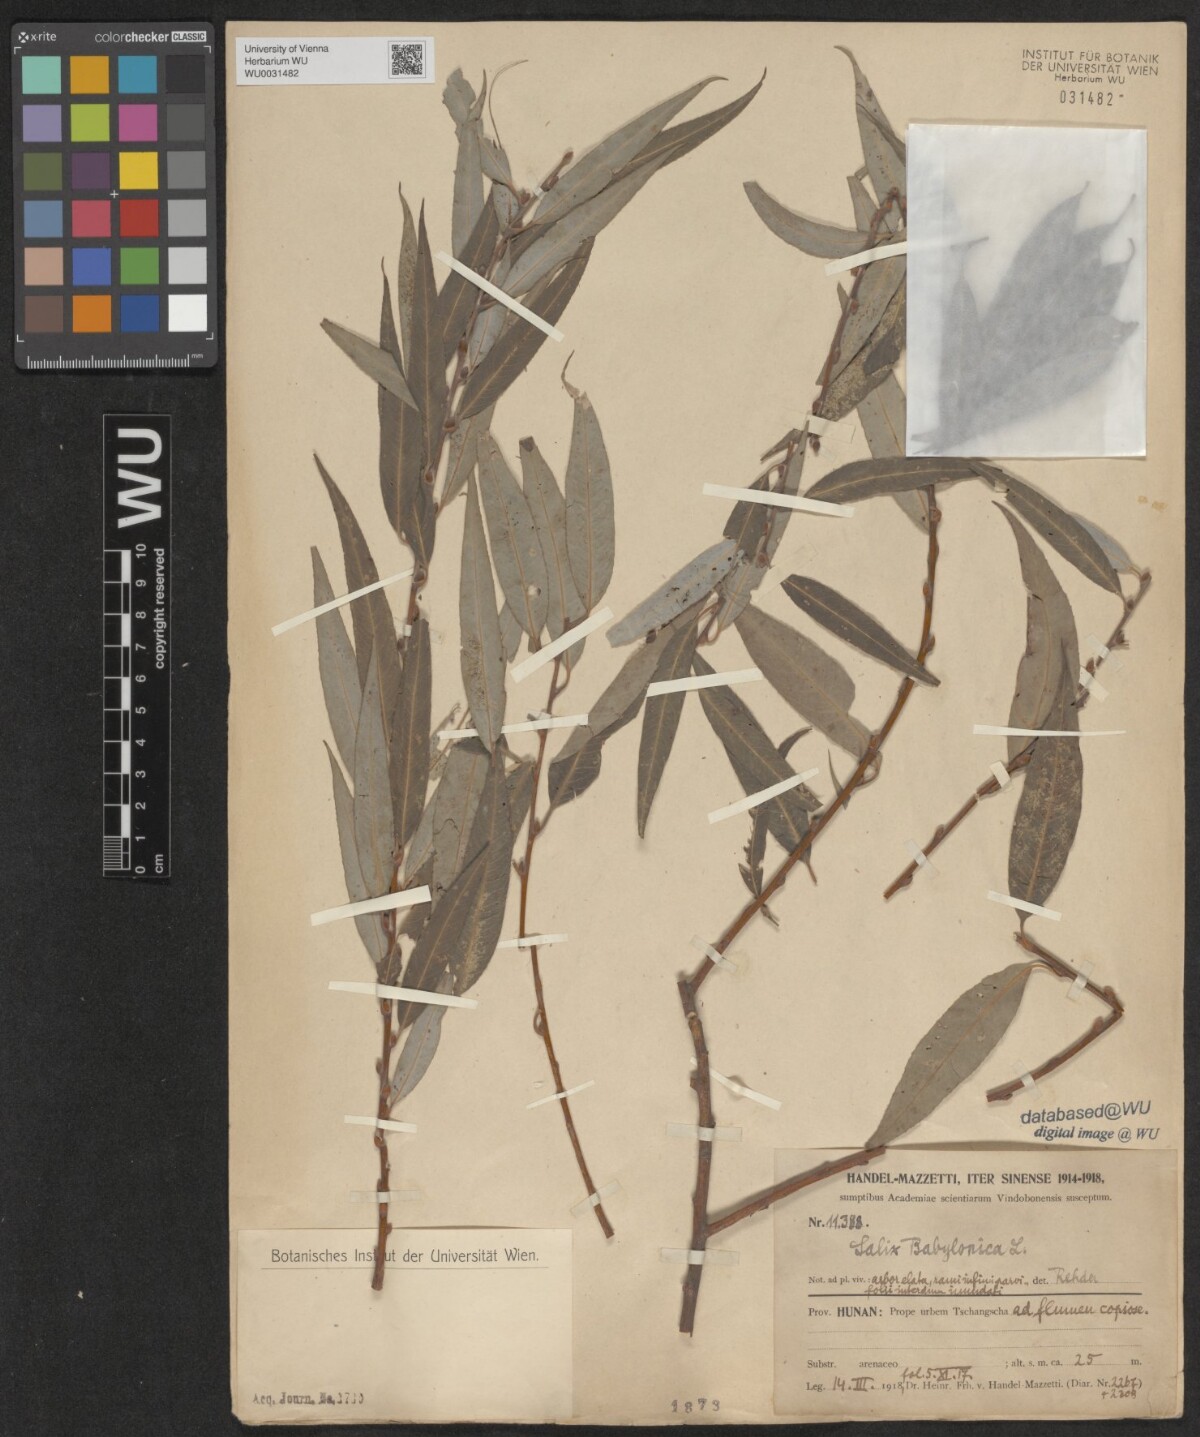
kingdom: Plantae
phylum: Tracheophyta
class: Magnoliopsida
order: Malpighiales
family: Salicaceae
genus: Salix
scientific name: Salix babylonica
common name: Weeping willow
